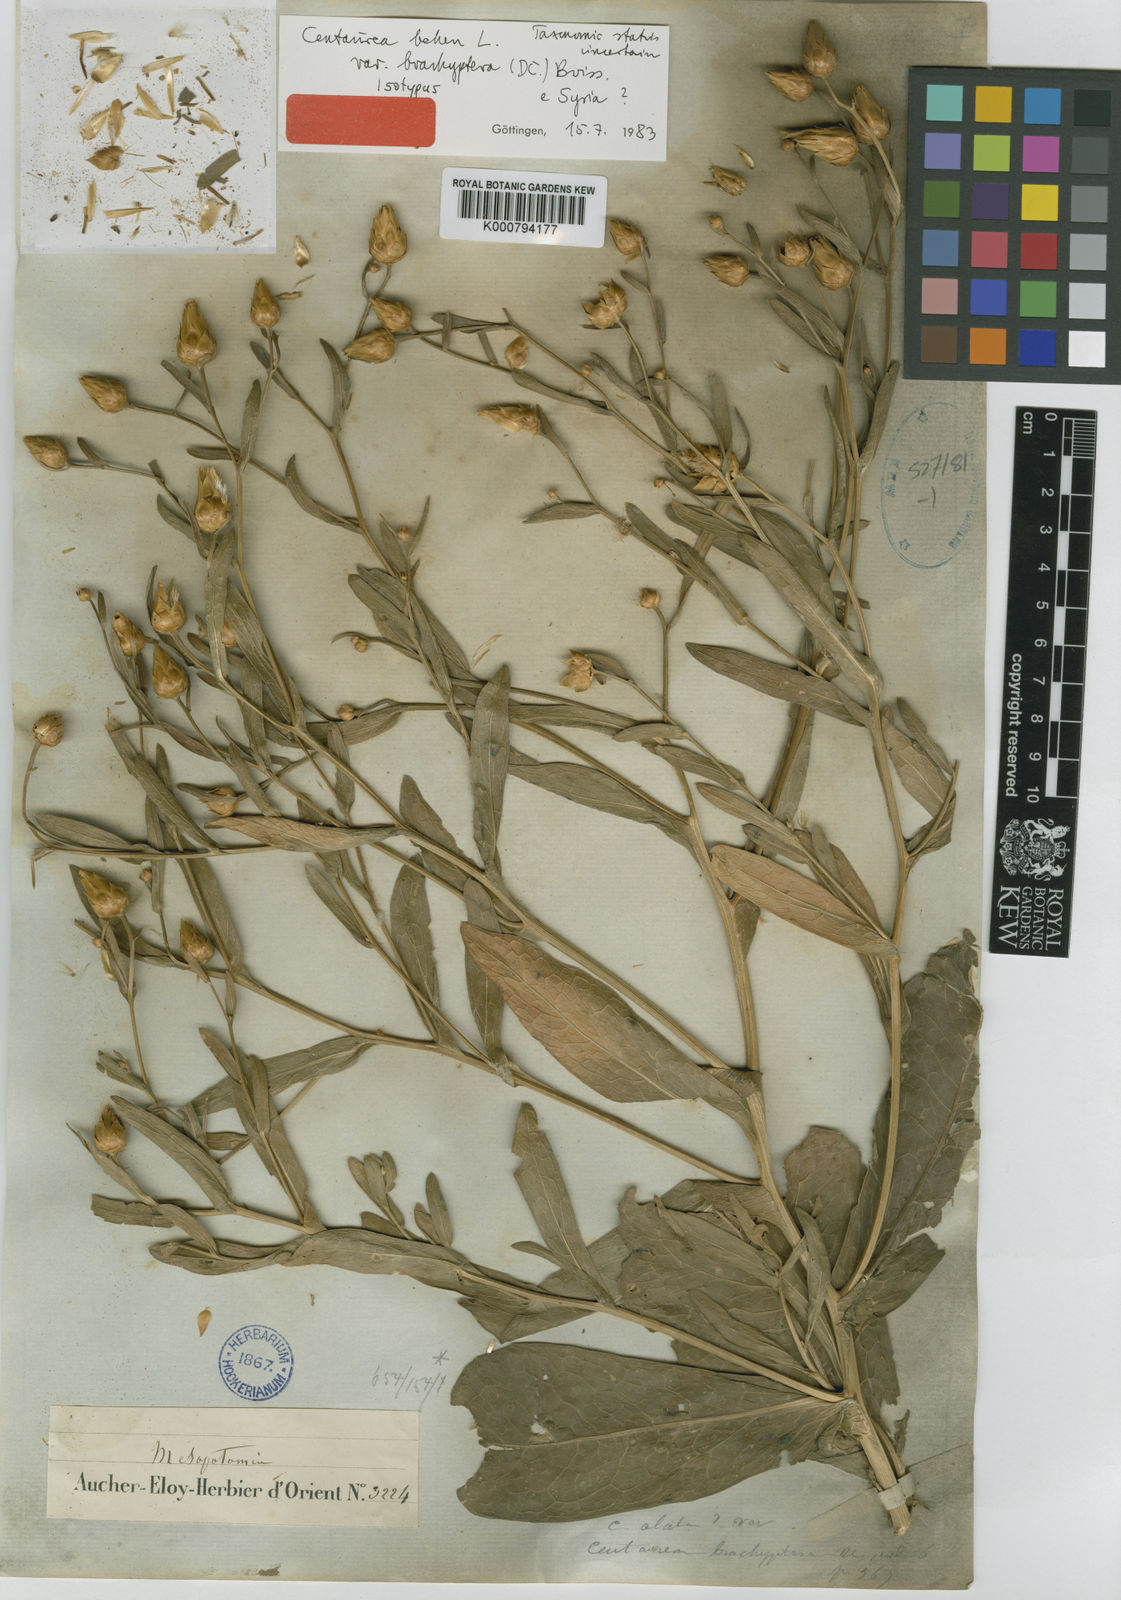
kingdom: Plantae
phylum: Tracheophyta
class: Magnoliopsida
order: Asterales
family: Asteraceae
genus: Centaurea
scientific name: Centaurea behen
